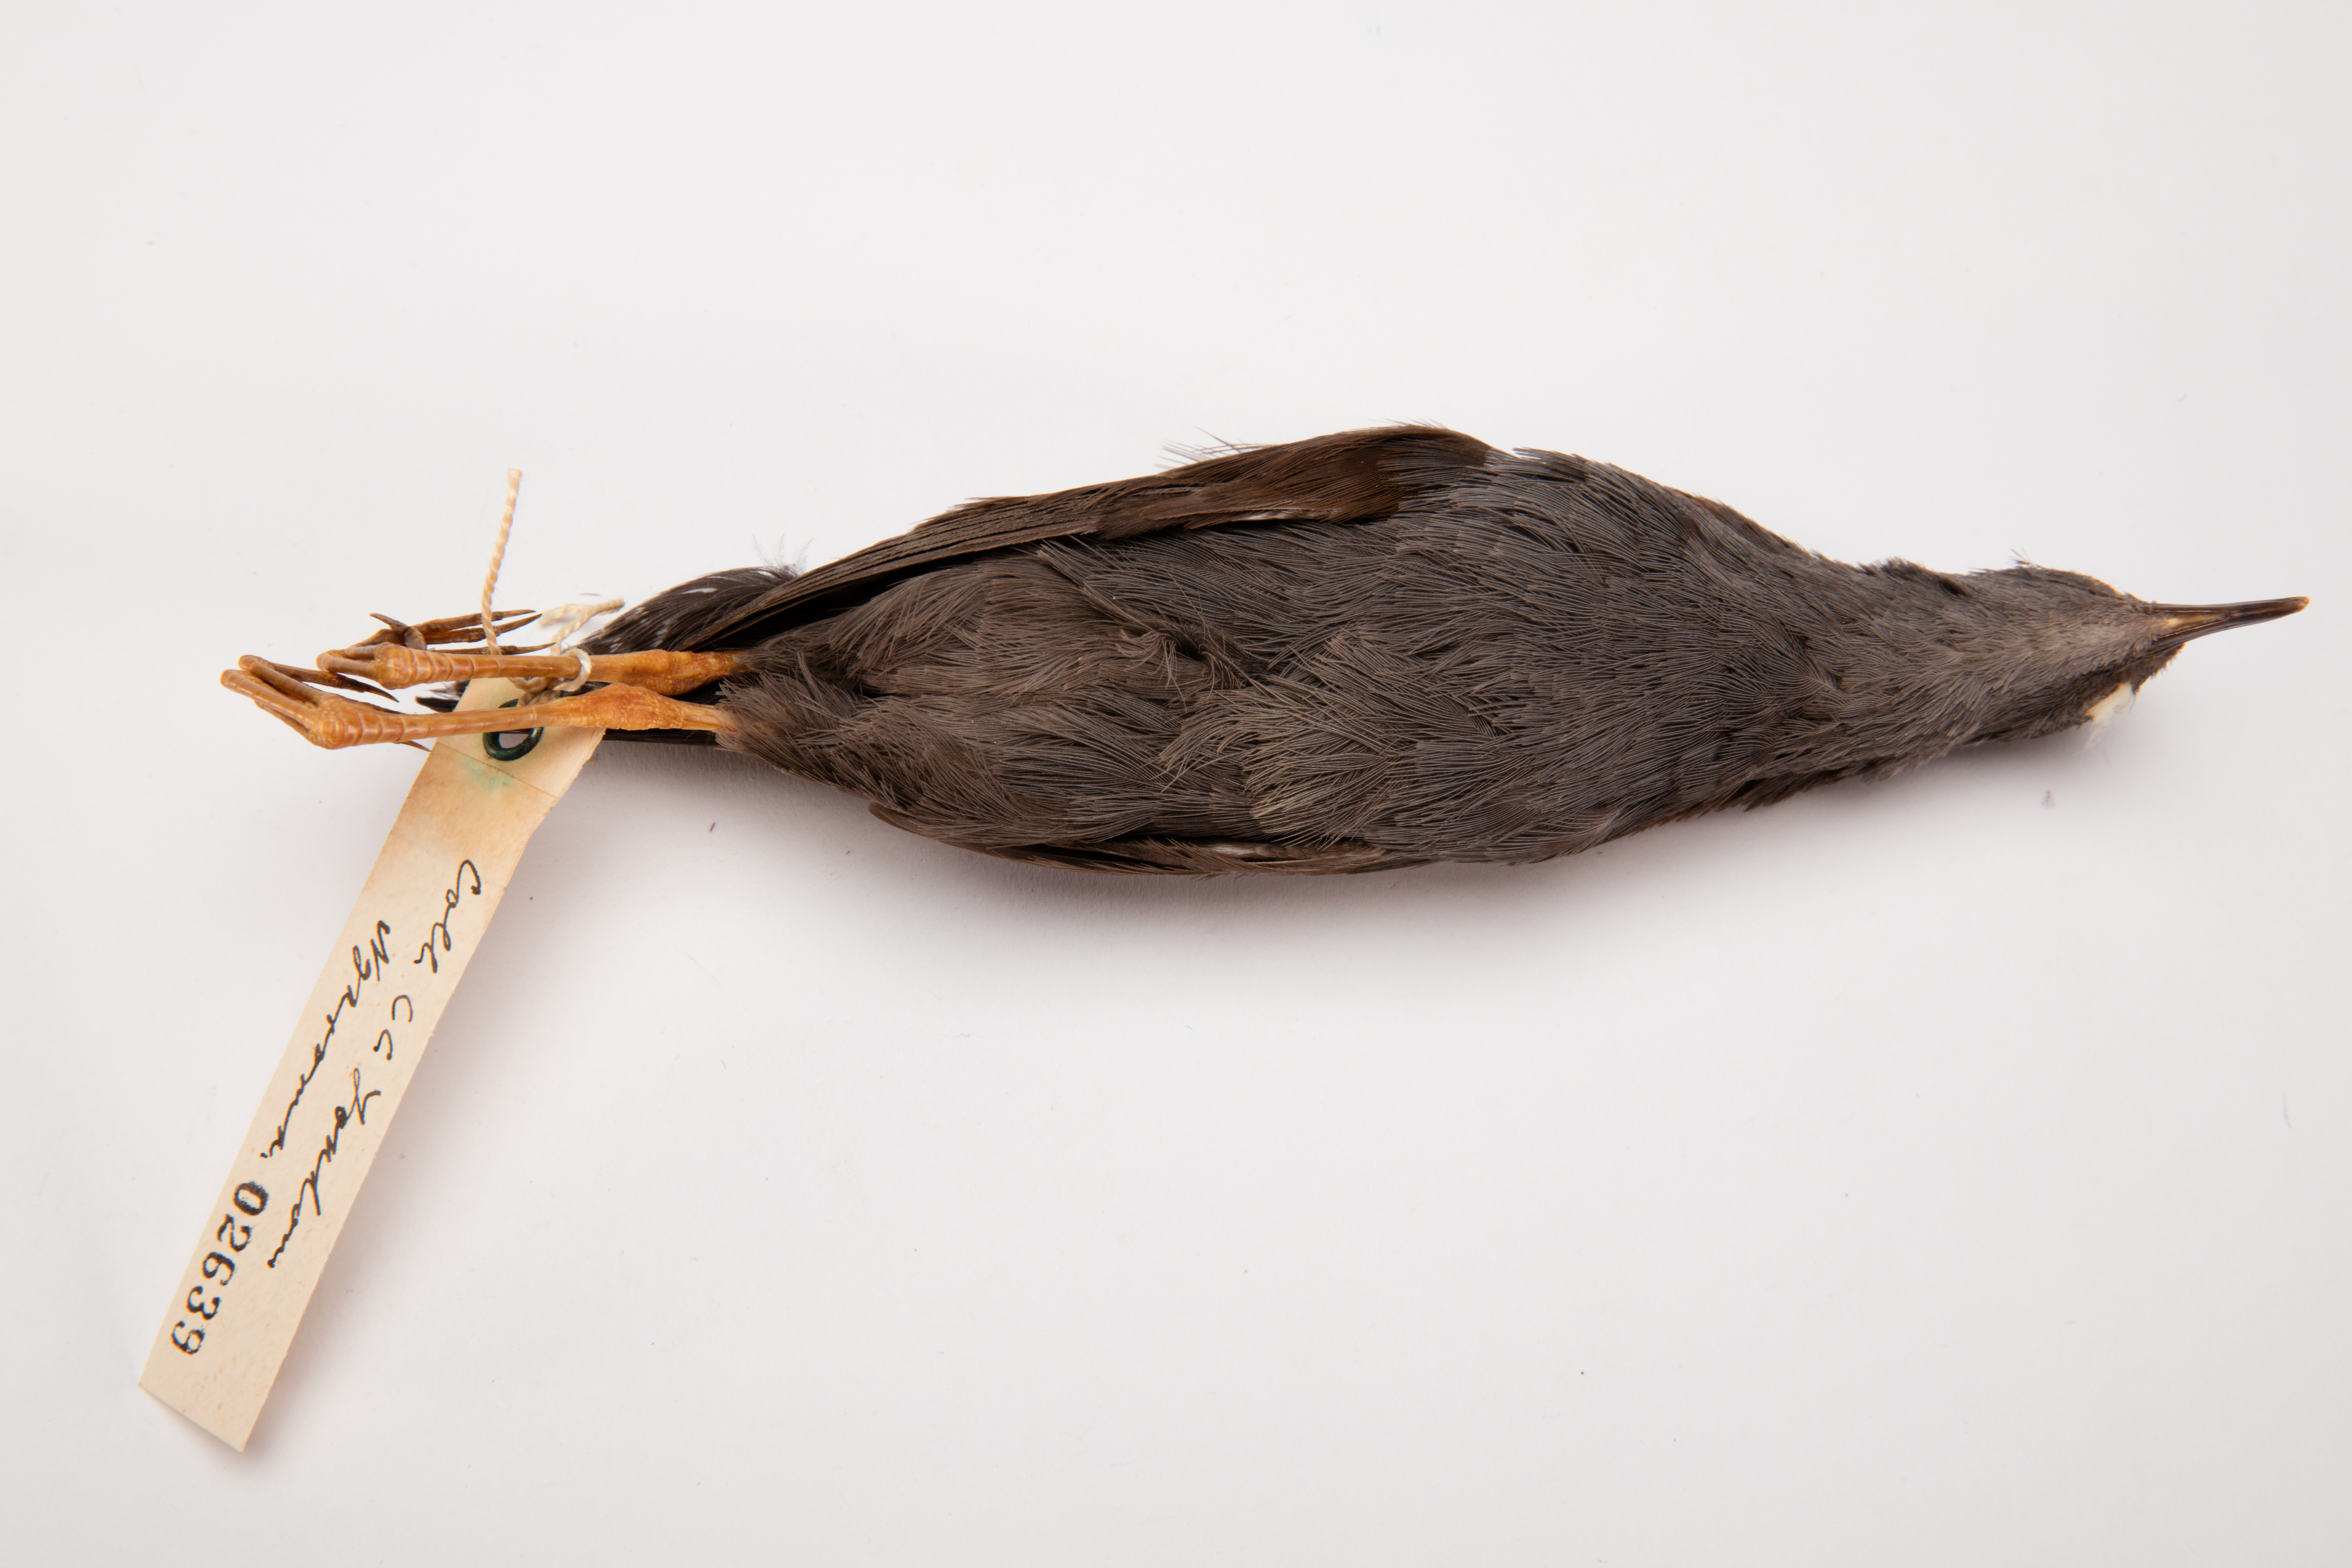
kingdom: Animalia
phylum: Chordata
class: Aves
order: Gruiformes
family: Rallidae
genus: Porzana
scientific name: Porzana tabuensis
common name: Spotless crake
